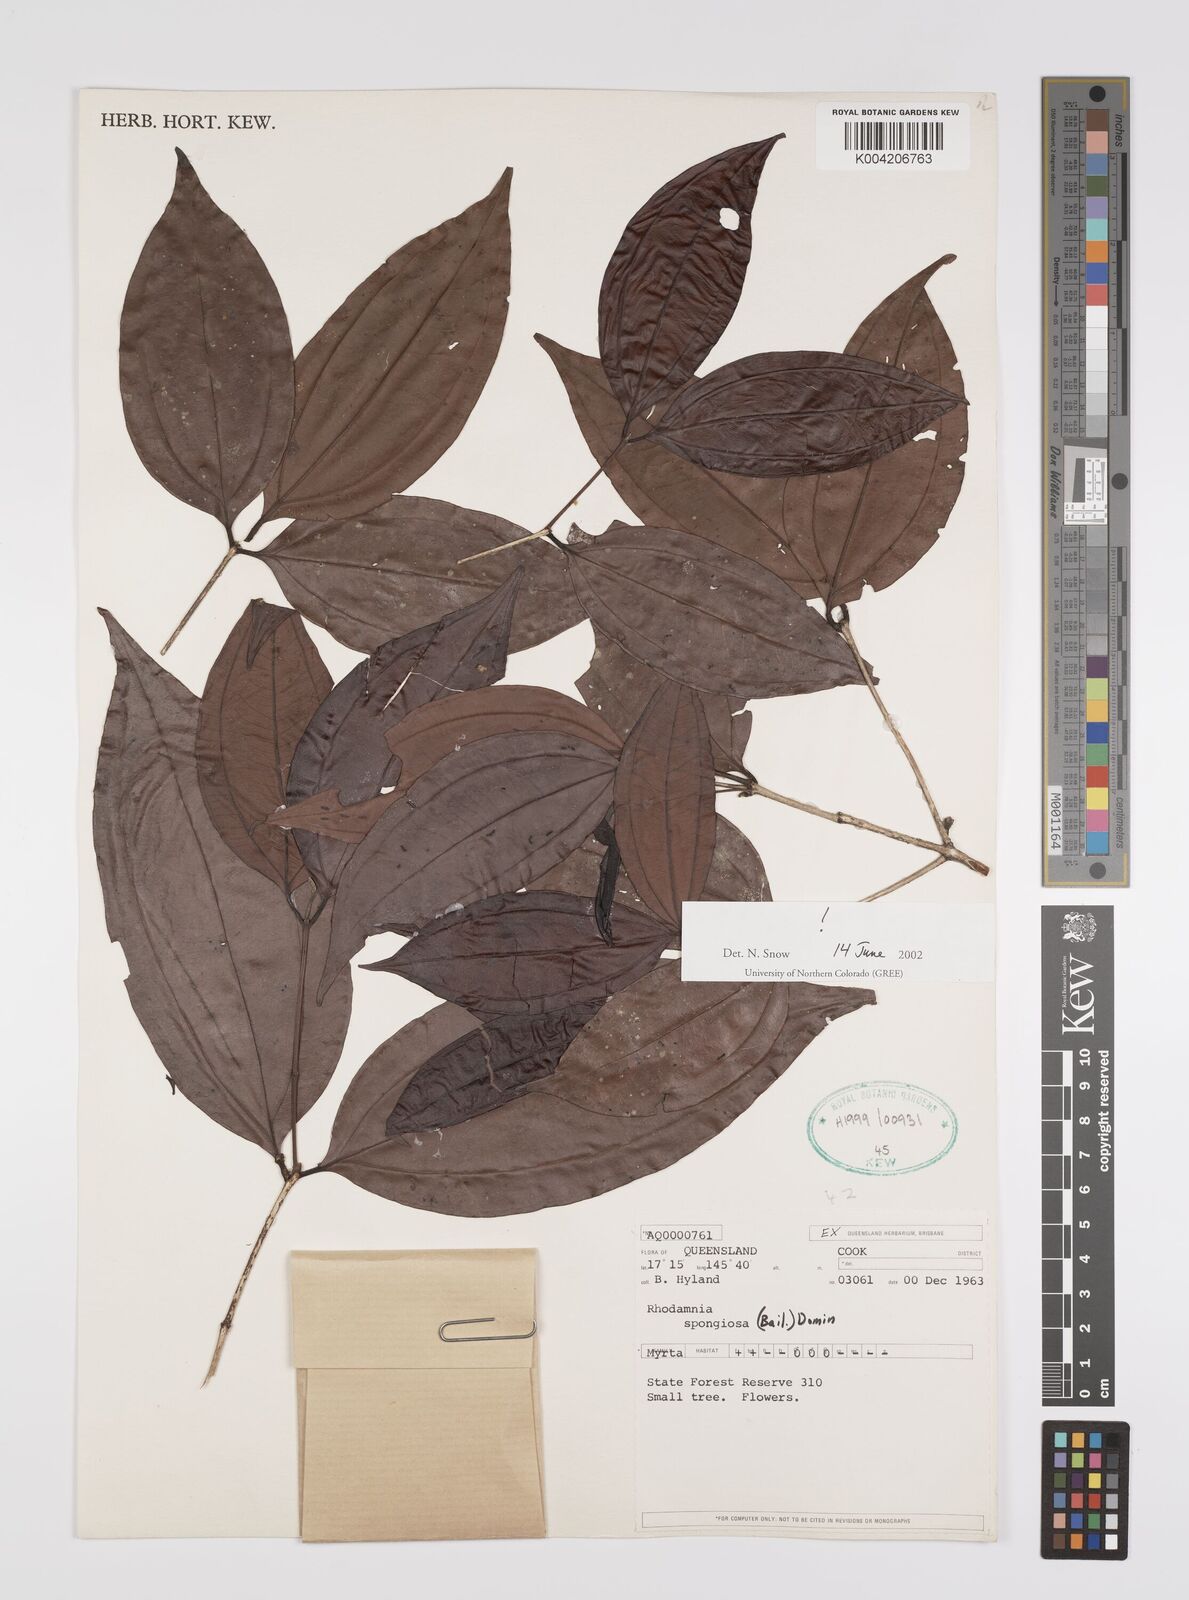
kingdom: Plantae
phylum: Tracheophyta
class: Magnoliopsida
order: Myrtales
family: Myrtaceae
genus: Rhodamnia
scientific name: Rhodamnia glauca
